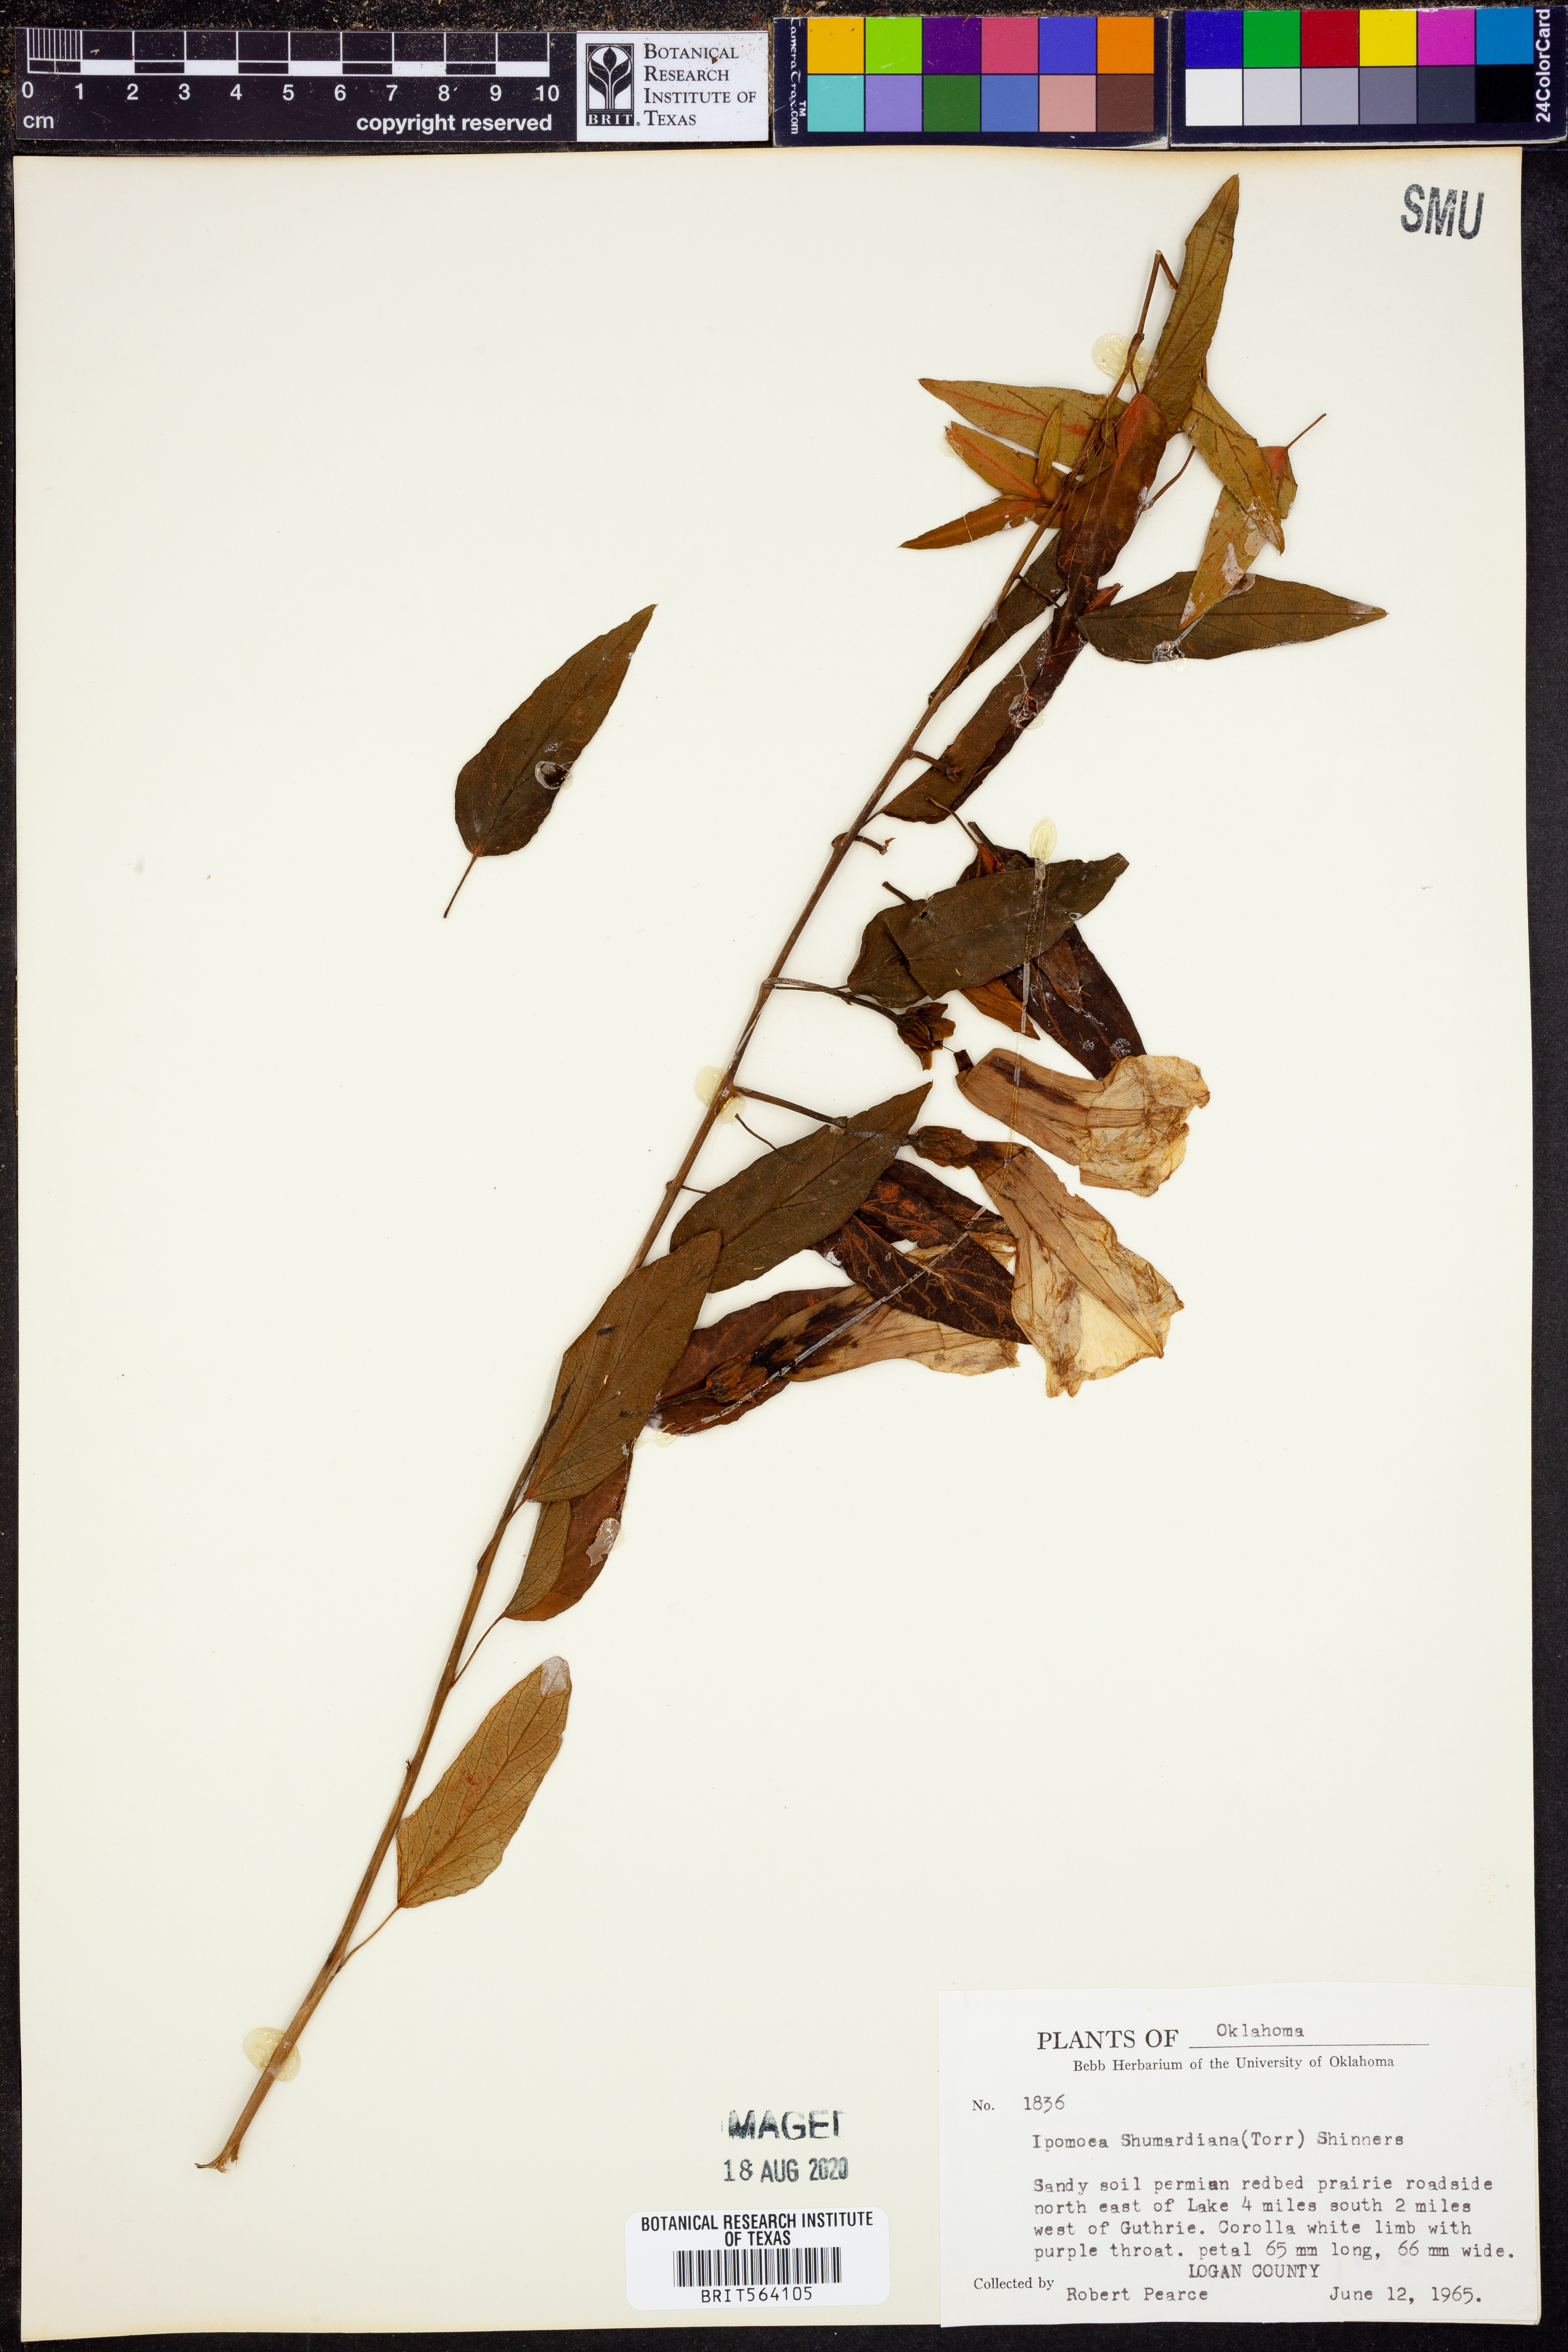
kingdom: Plantae
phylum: Tracheophyta
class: Magnoliopsida
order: Solanales
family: Convolvulaceae
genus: Ipomoea
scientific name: Ipomoea shumardiana
